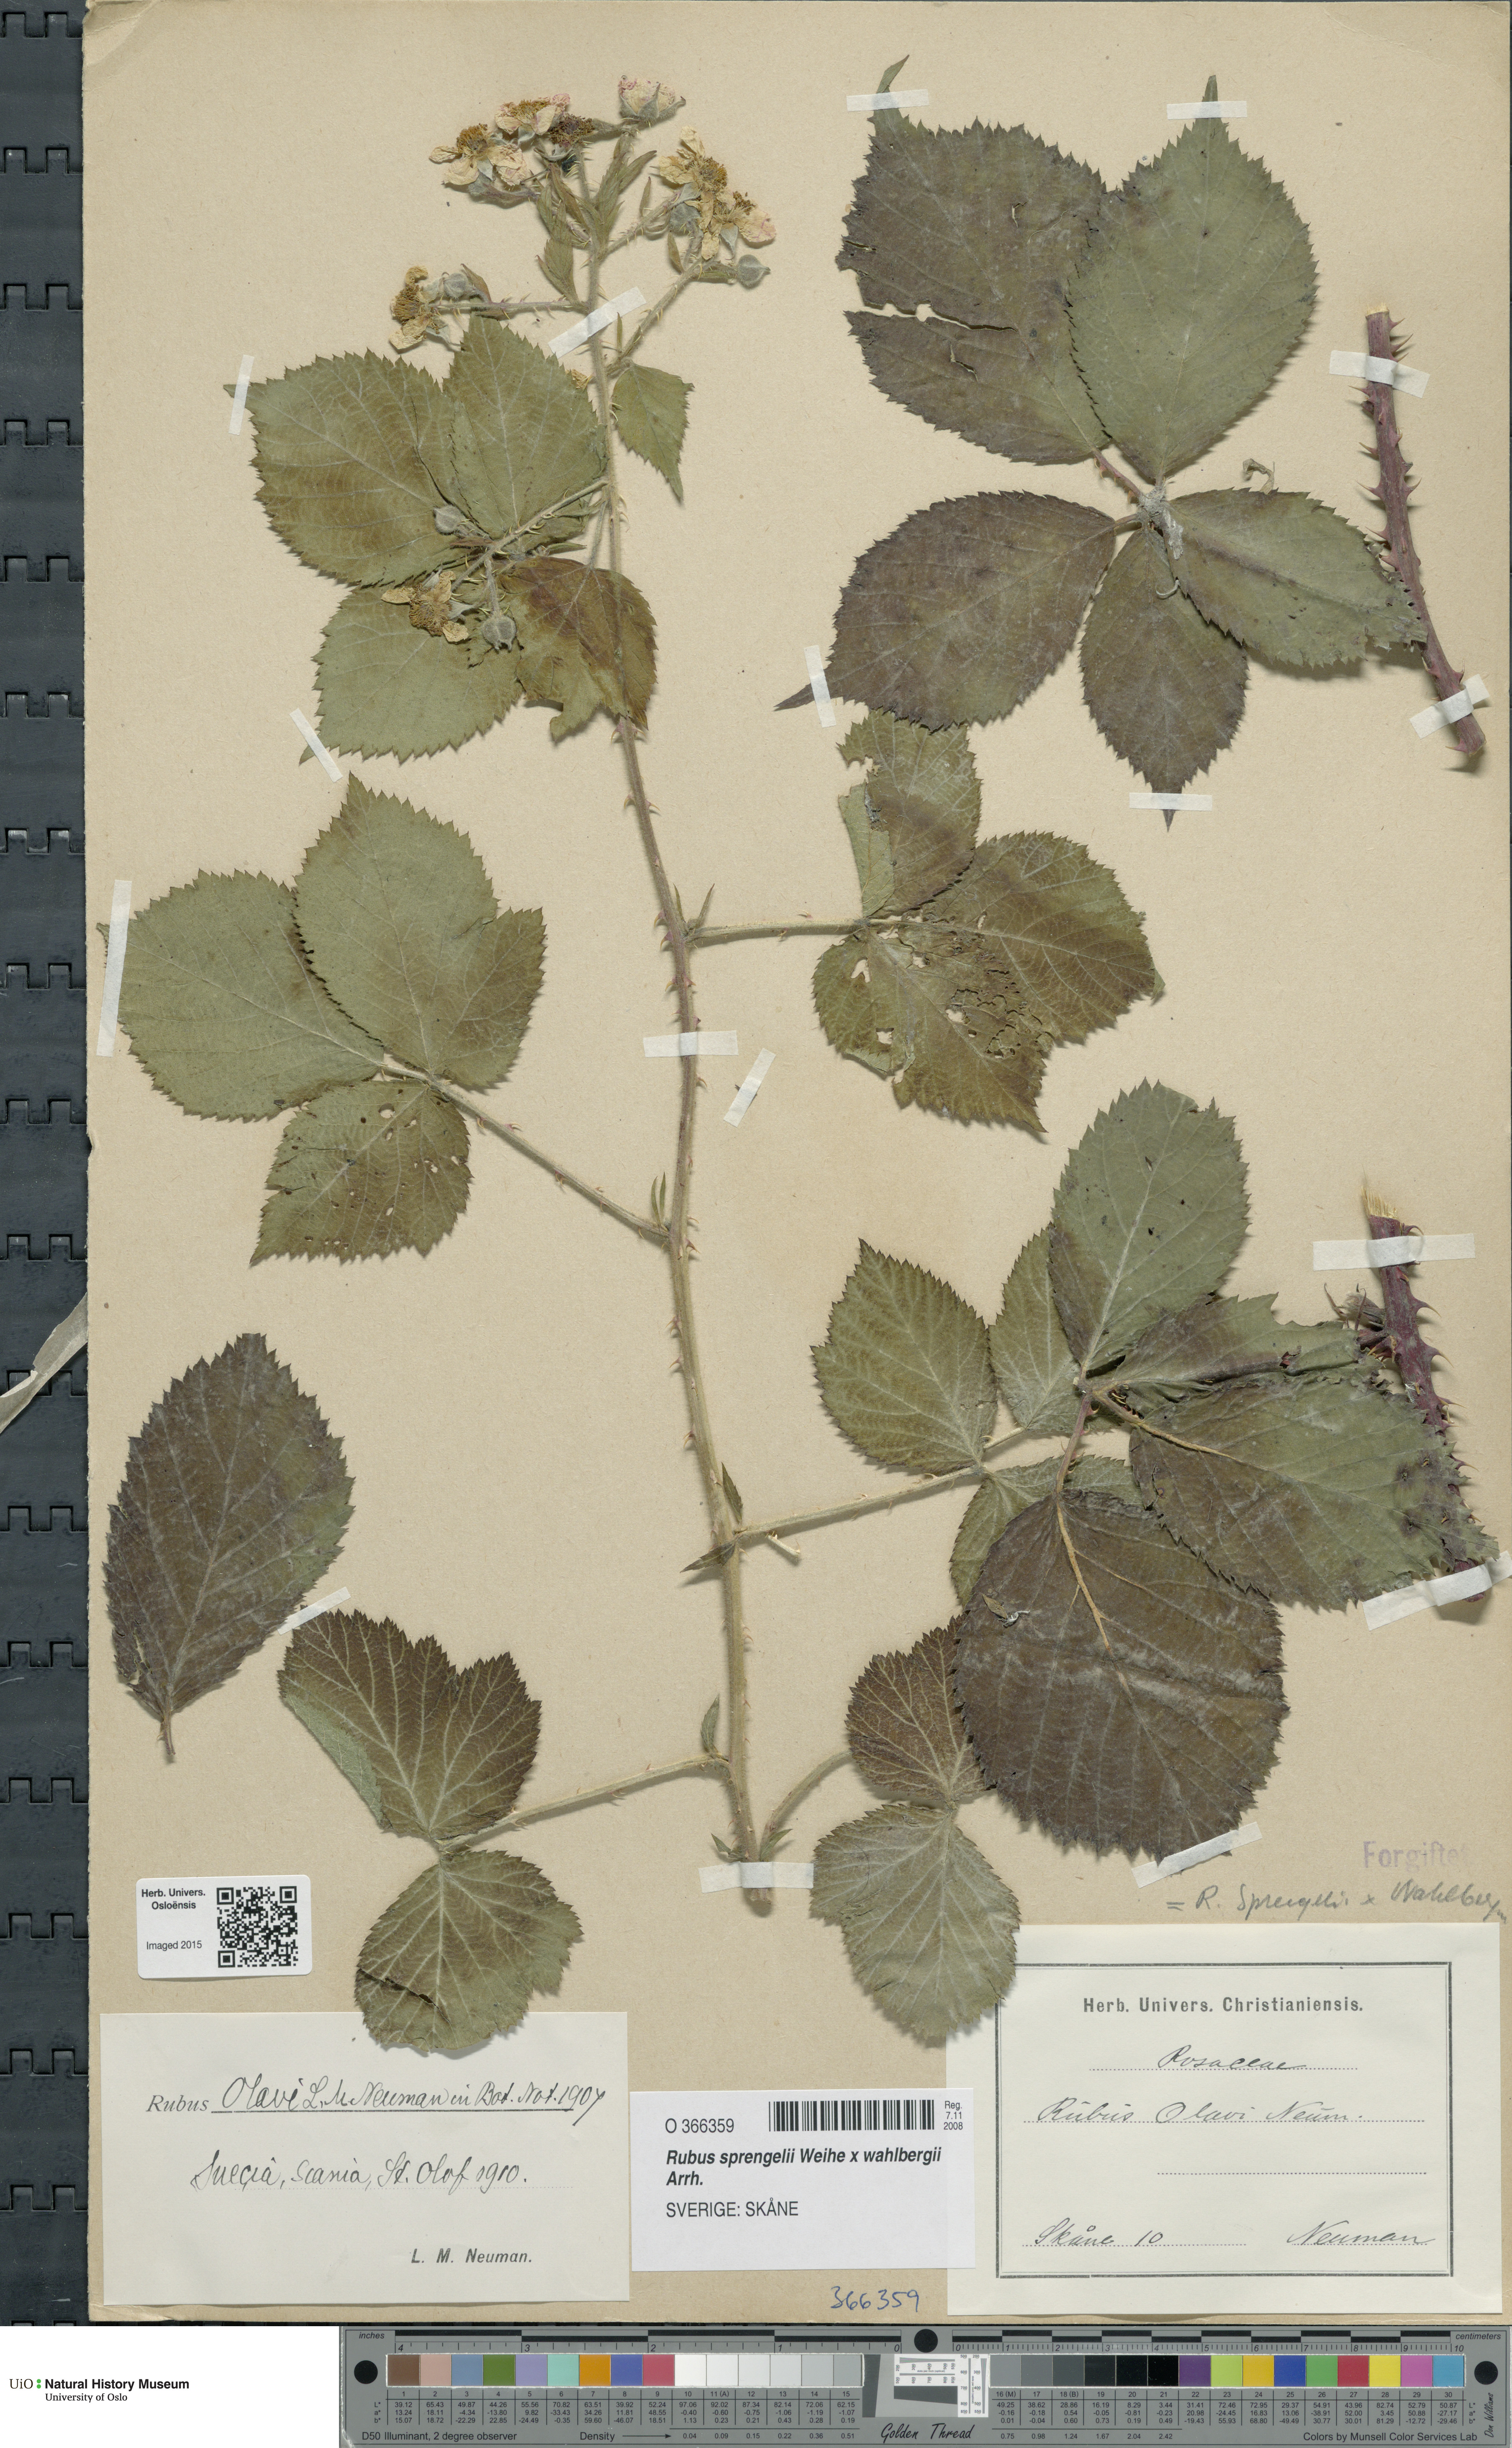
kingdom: Plantae
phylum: Tracheophyta
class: Magnoliopsida
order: Rosales
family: Rosaceae
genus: Rubus
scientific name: Rubus
